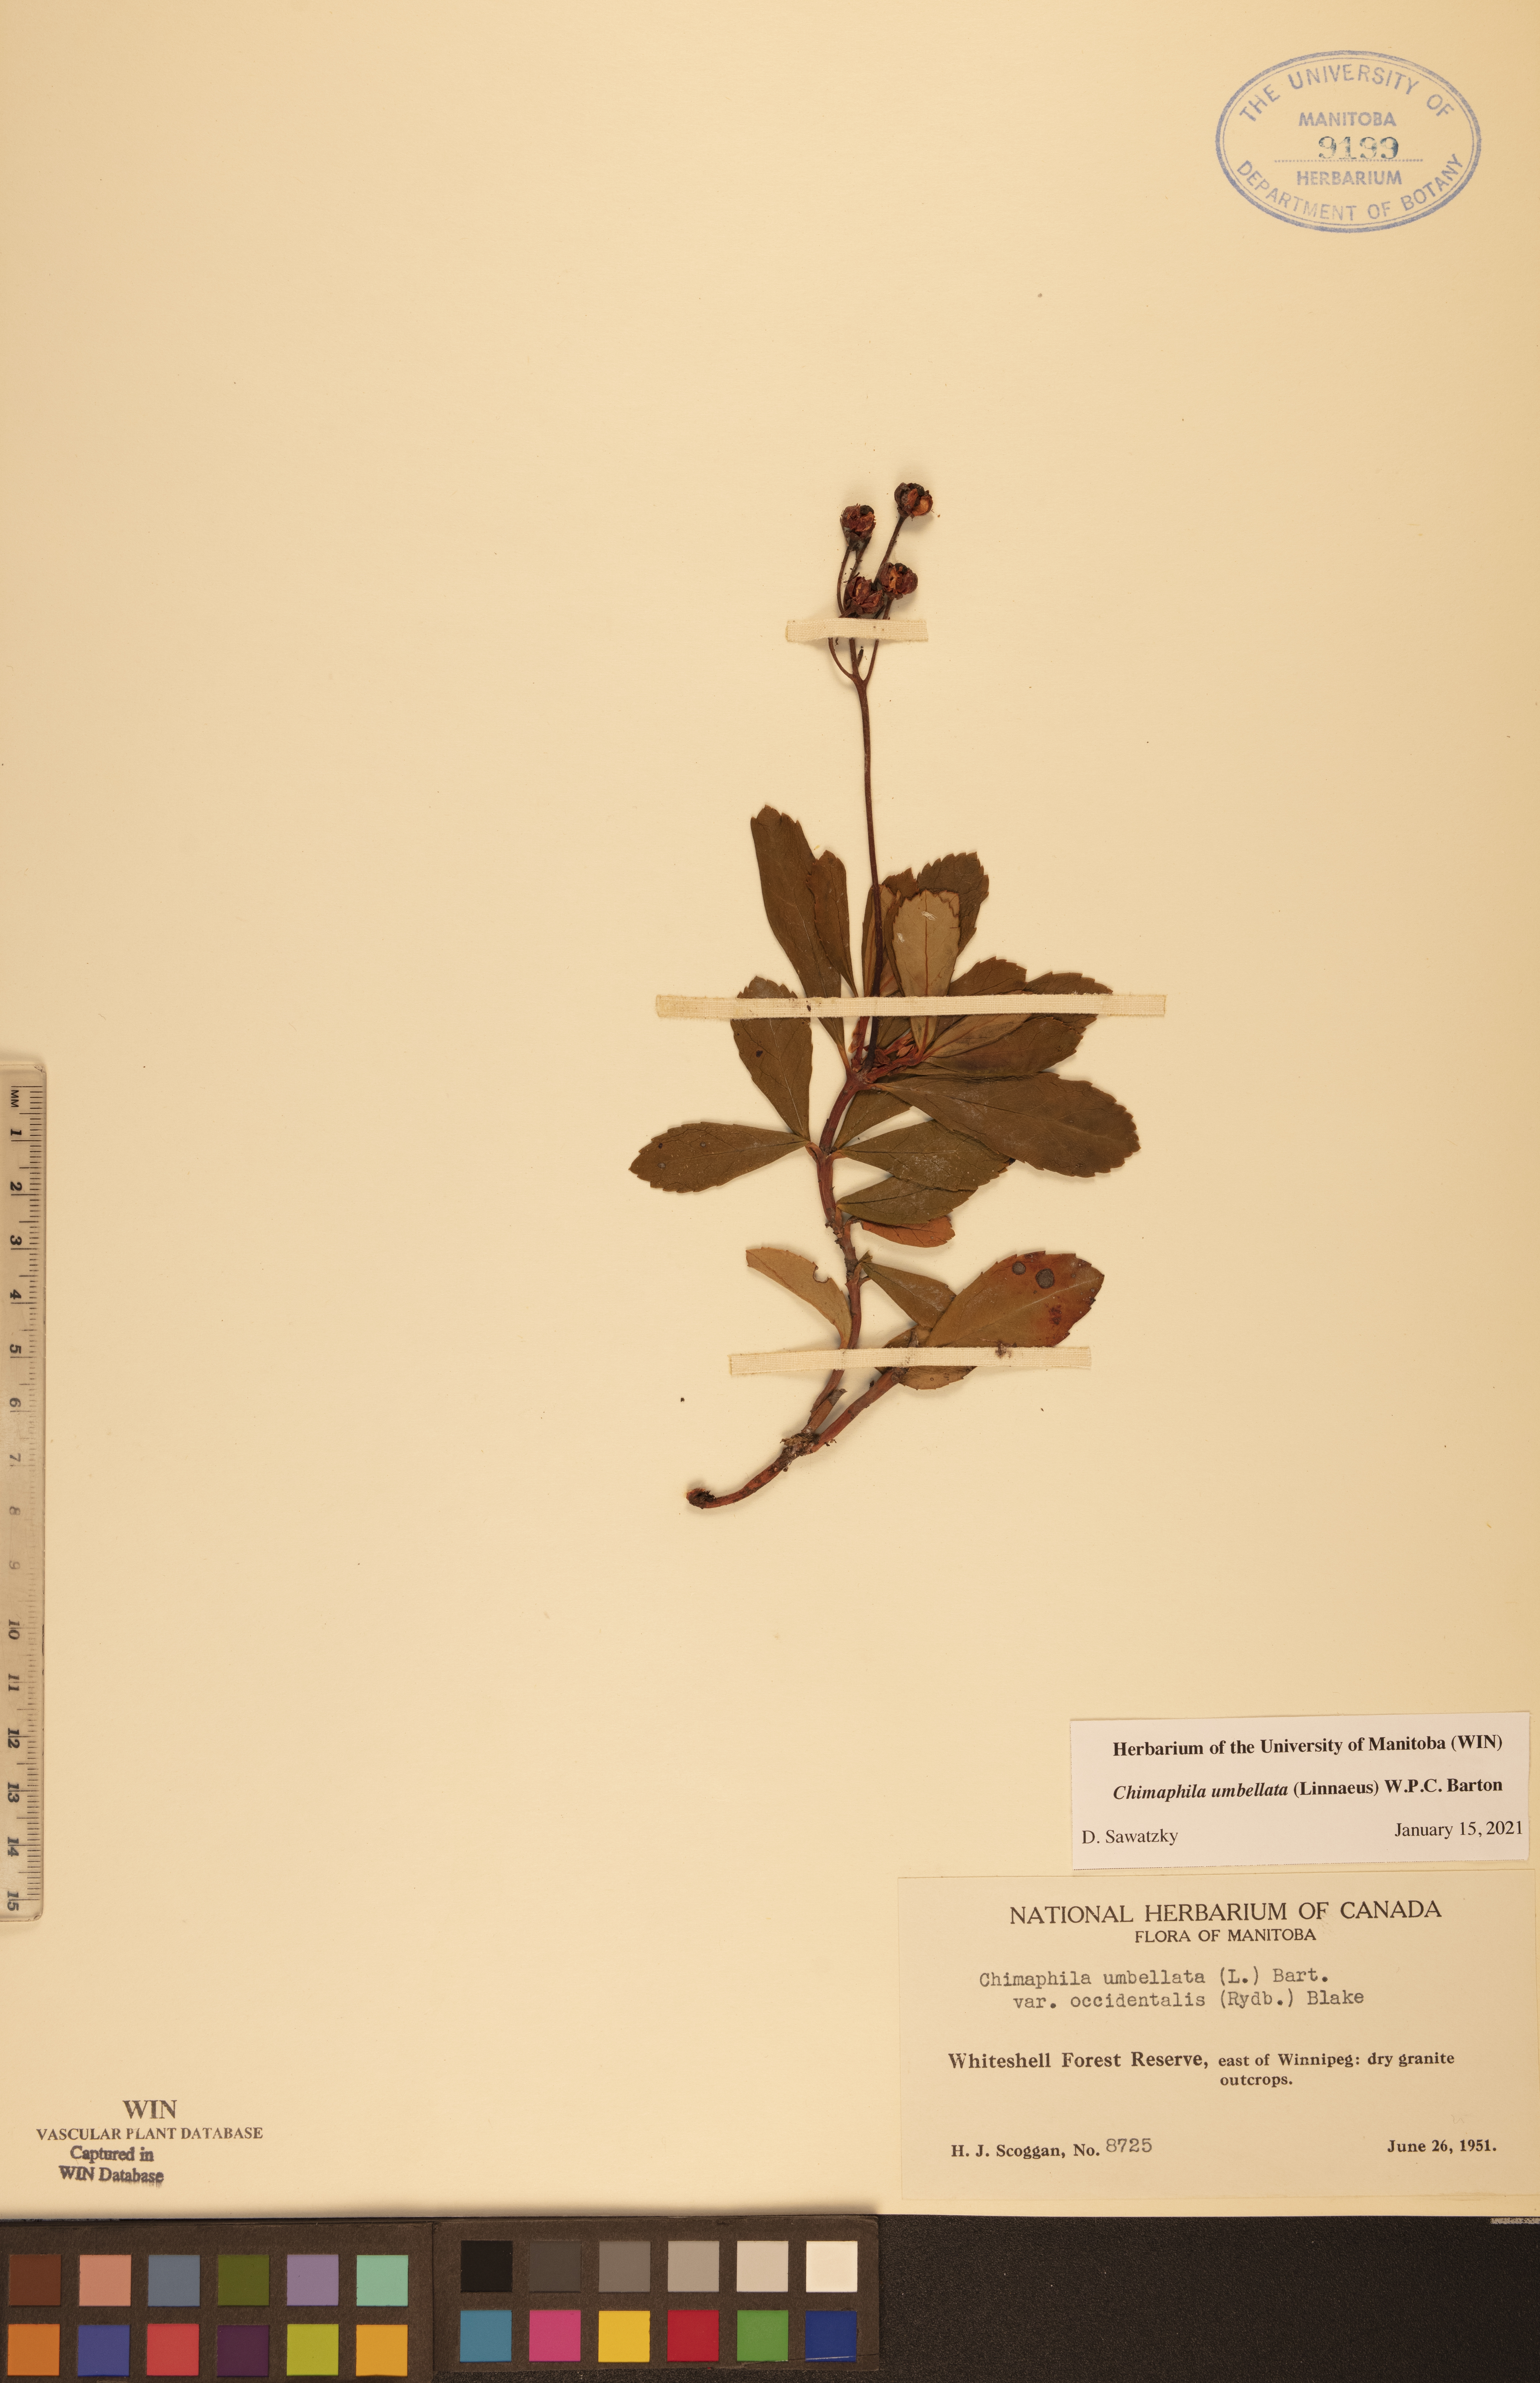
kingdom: Plantae
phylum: Tracheophyta
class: Magnoliopsida
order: Ericales
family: Ericaceae
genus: Chimaphila
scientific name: Chimaphila umbellata
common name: Pipsissewa
